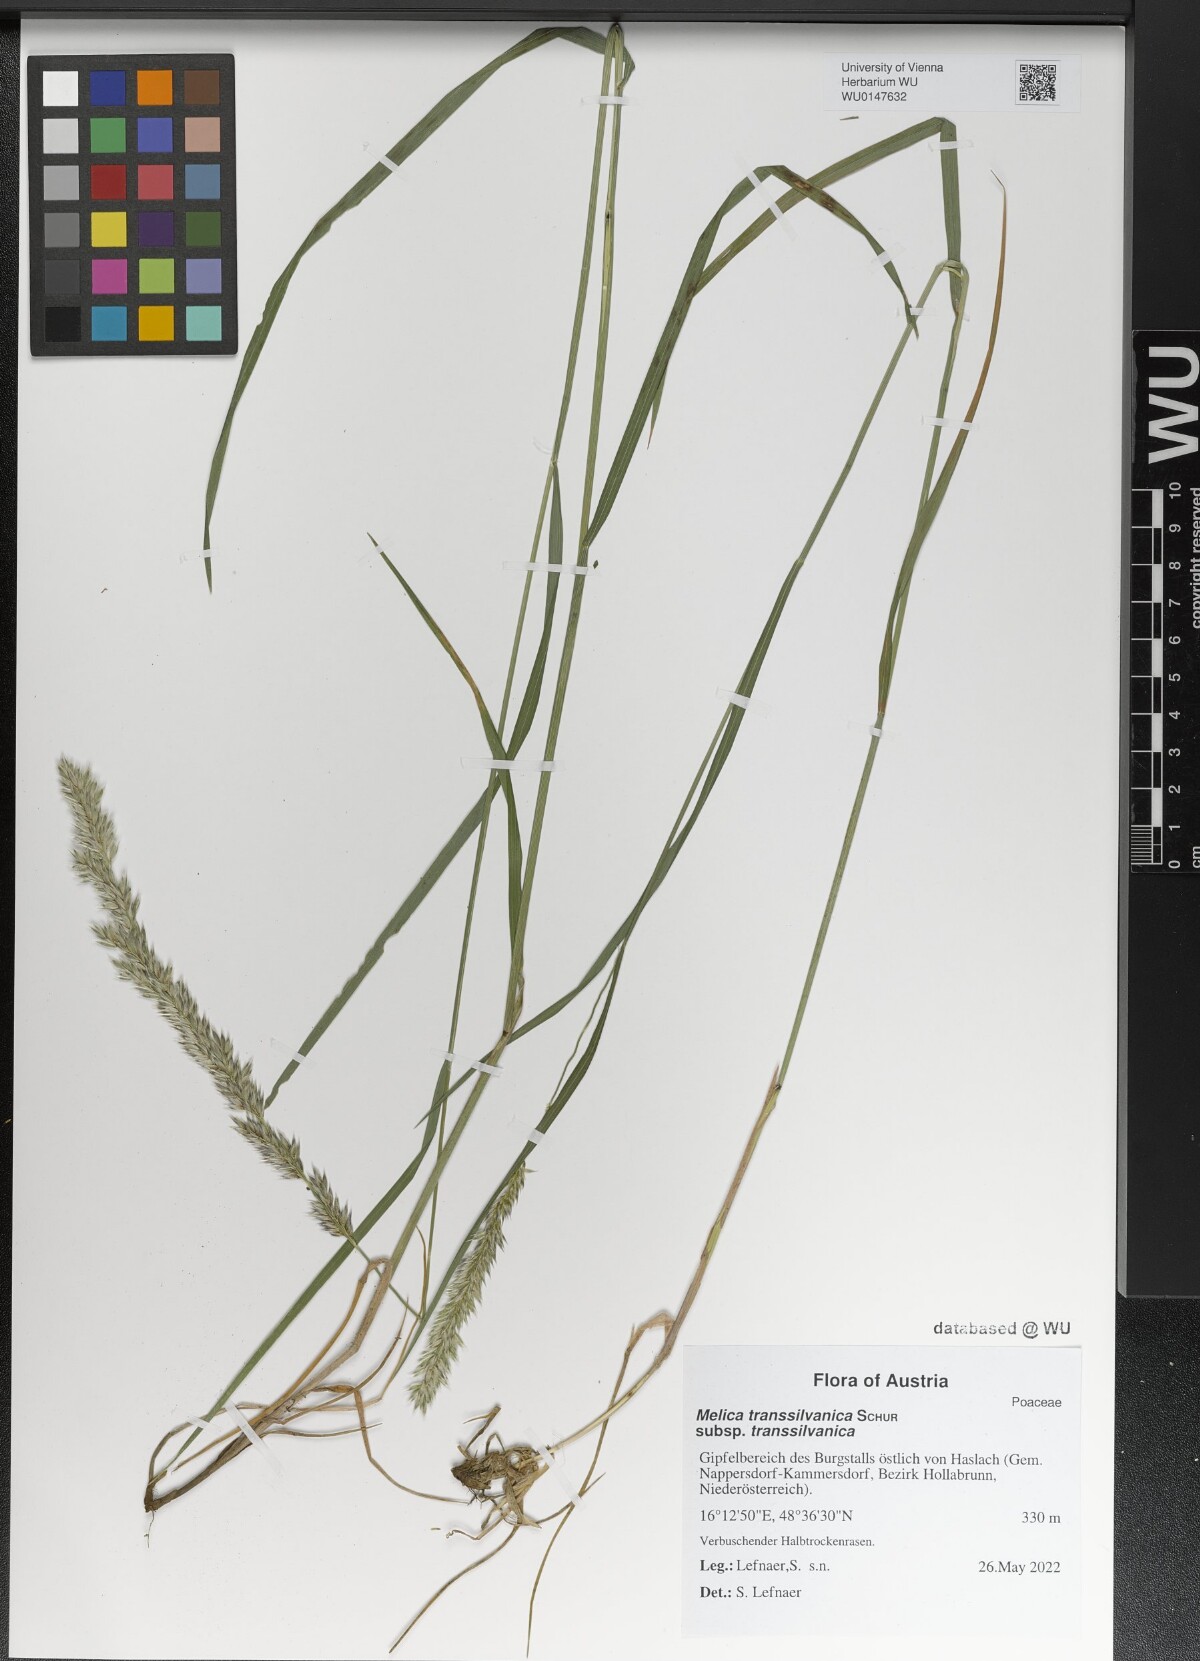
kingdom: Plantae
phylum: Tracheophyta
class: Liliopsida
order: Poales
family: Poaceae
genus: Melica
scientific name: Melica transsilvanica
